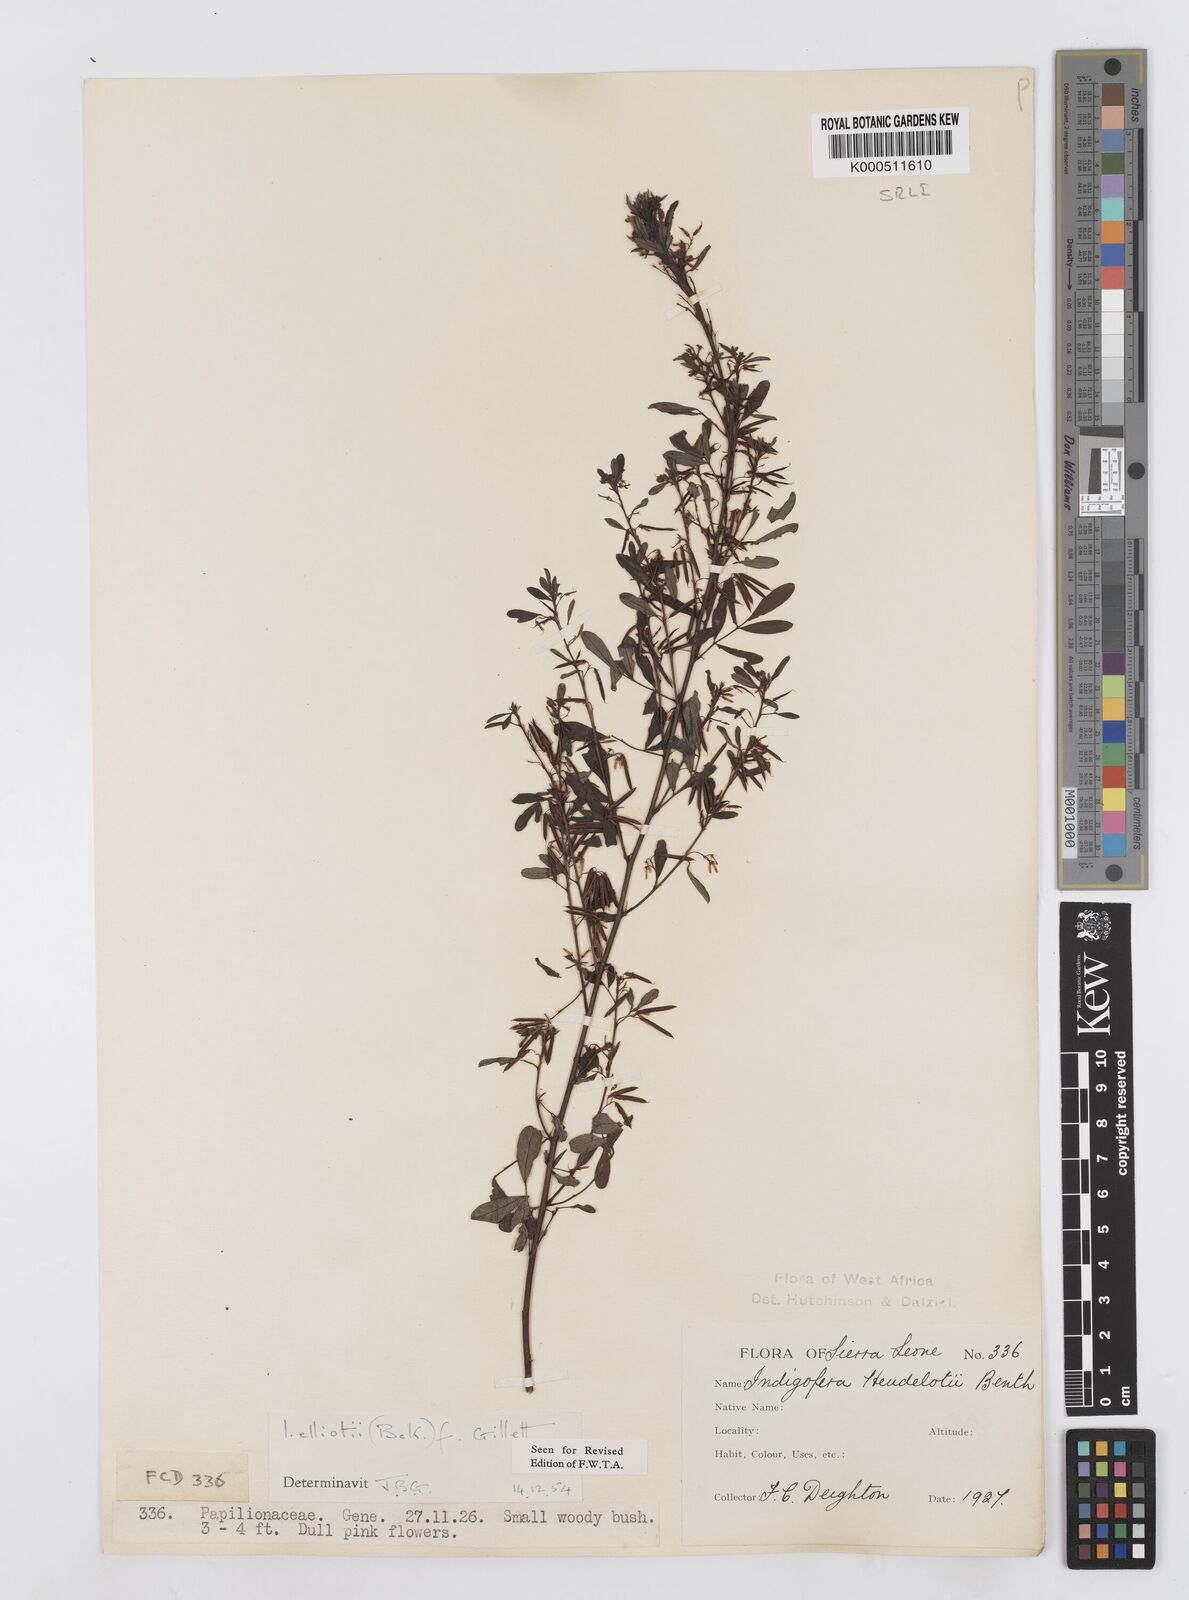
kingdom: Plantae
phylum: Tracheophyta
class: Magnoliopsida
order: Fabales
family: Fabaceae
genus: Indigofera
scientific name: Indigofera elliotii
